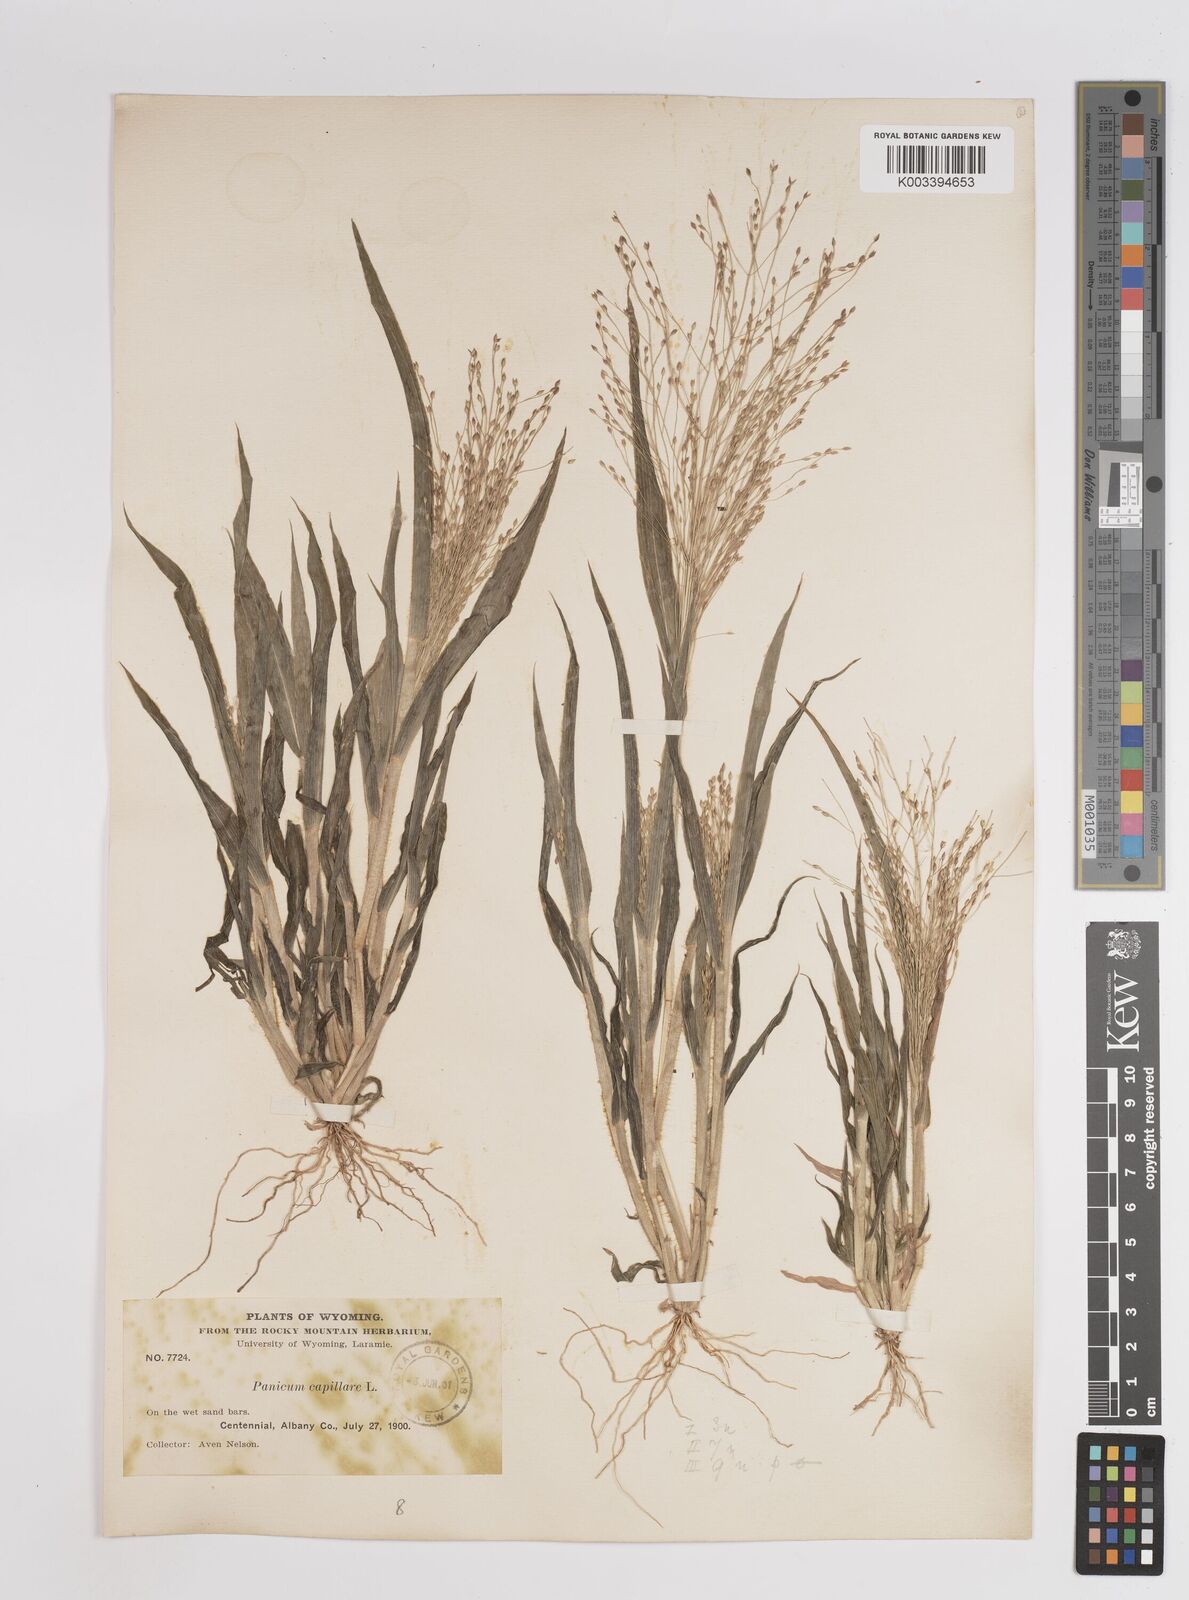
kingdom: Plantae
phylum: Tracheophyta
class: Liliopsida
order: Poales
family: Poaceae
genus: Panicum
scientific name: Panicum capillare
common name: Witch-grass
